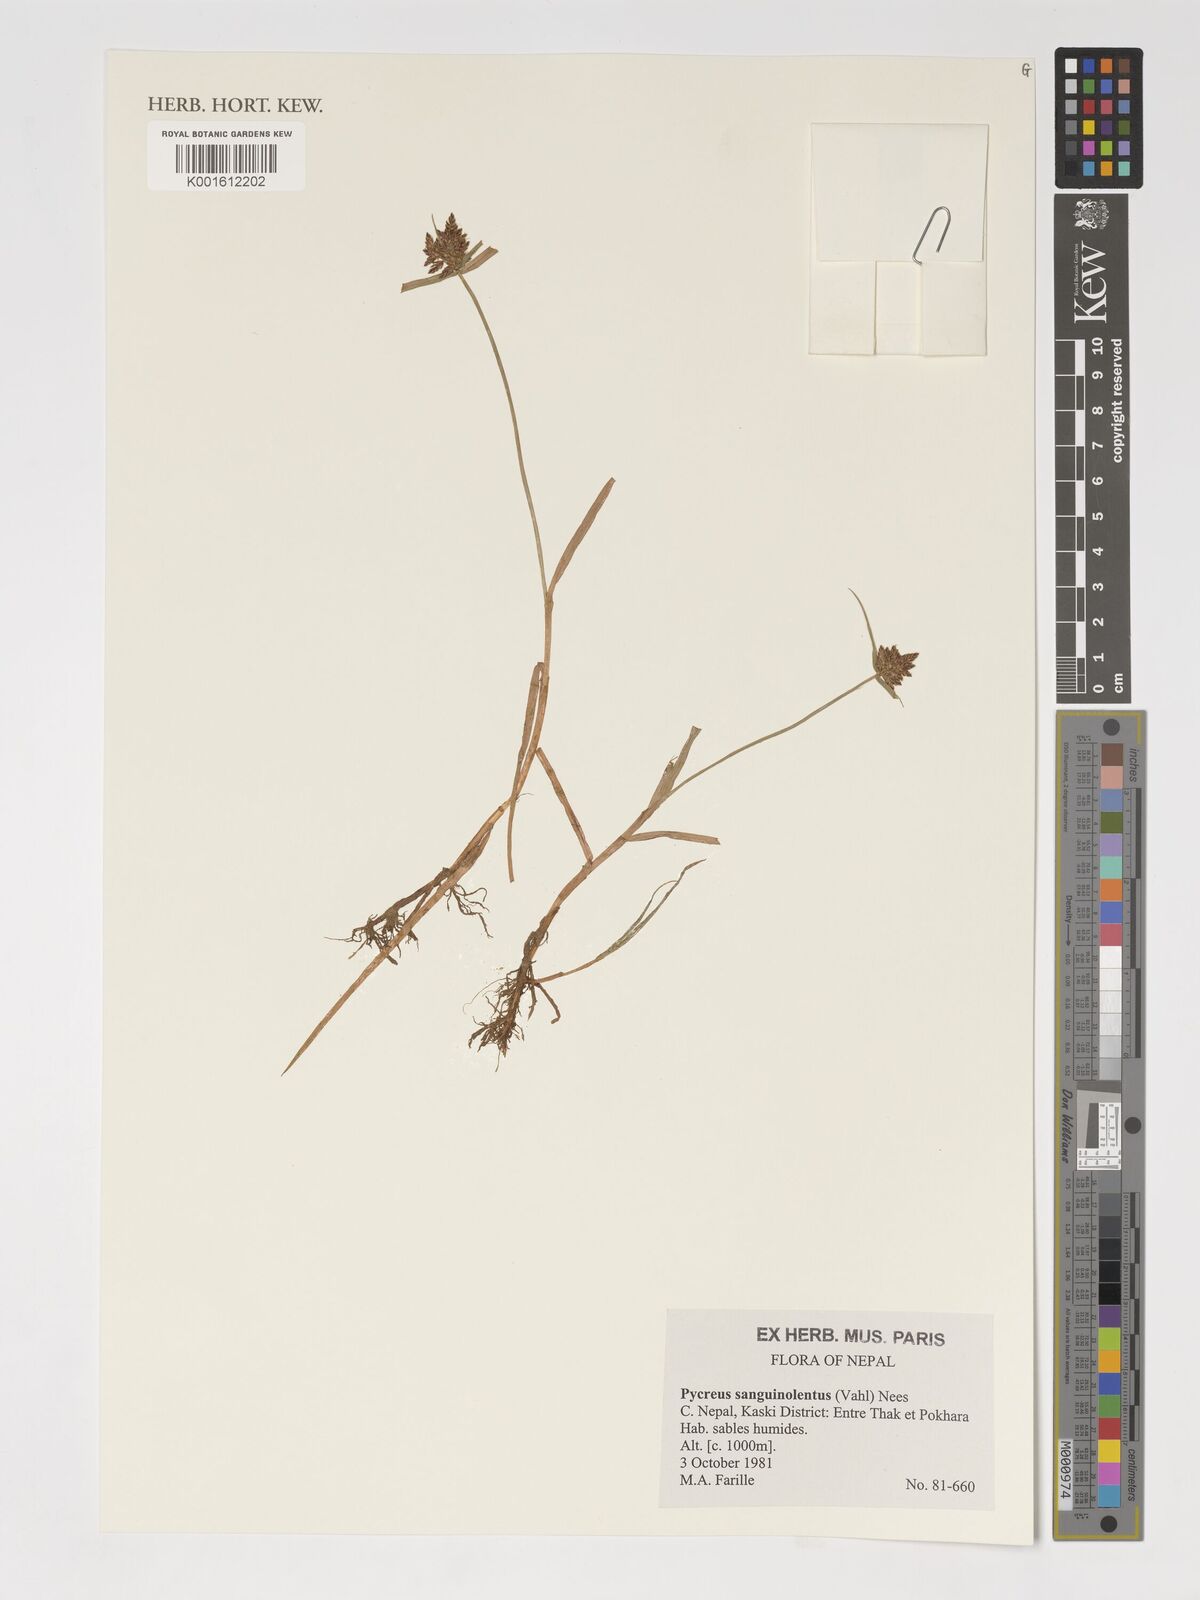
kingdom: Plantae
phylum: Tracheophyta
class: Liliopsida
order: Poales
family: Cyperaceae
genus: Cyperus
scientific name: Cyperus sanguinolentus
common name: Purpleglume flatsedge
